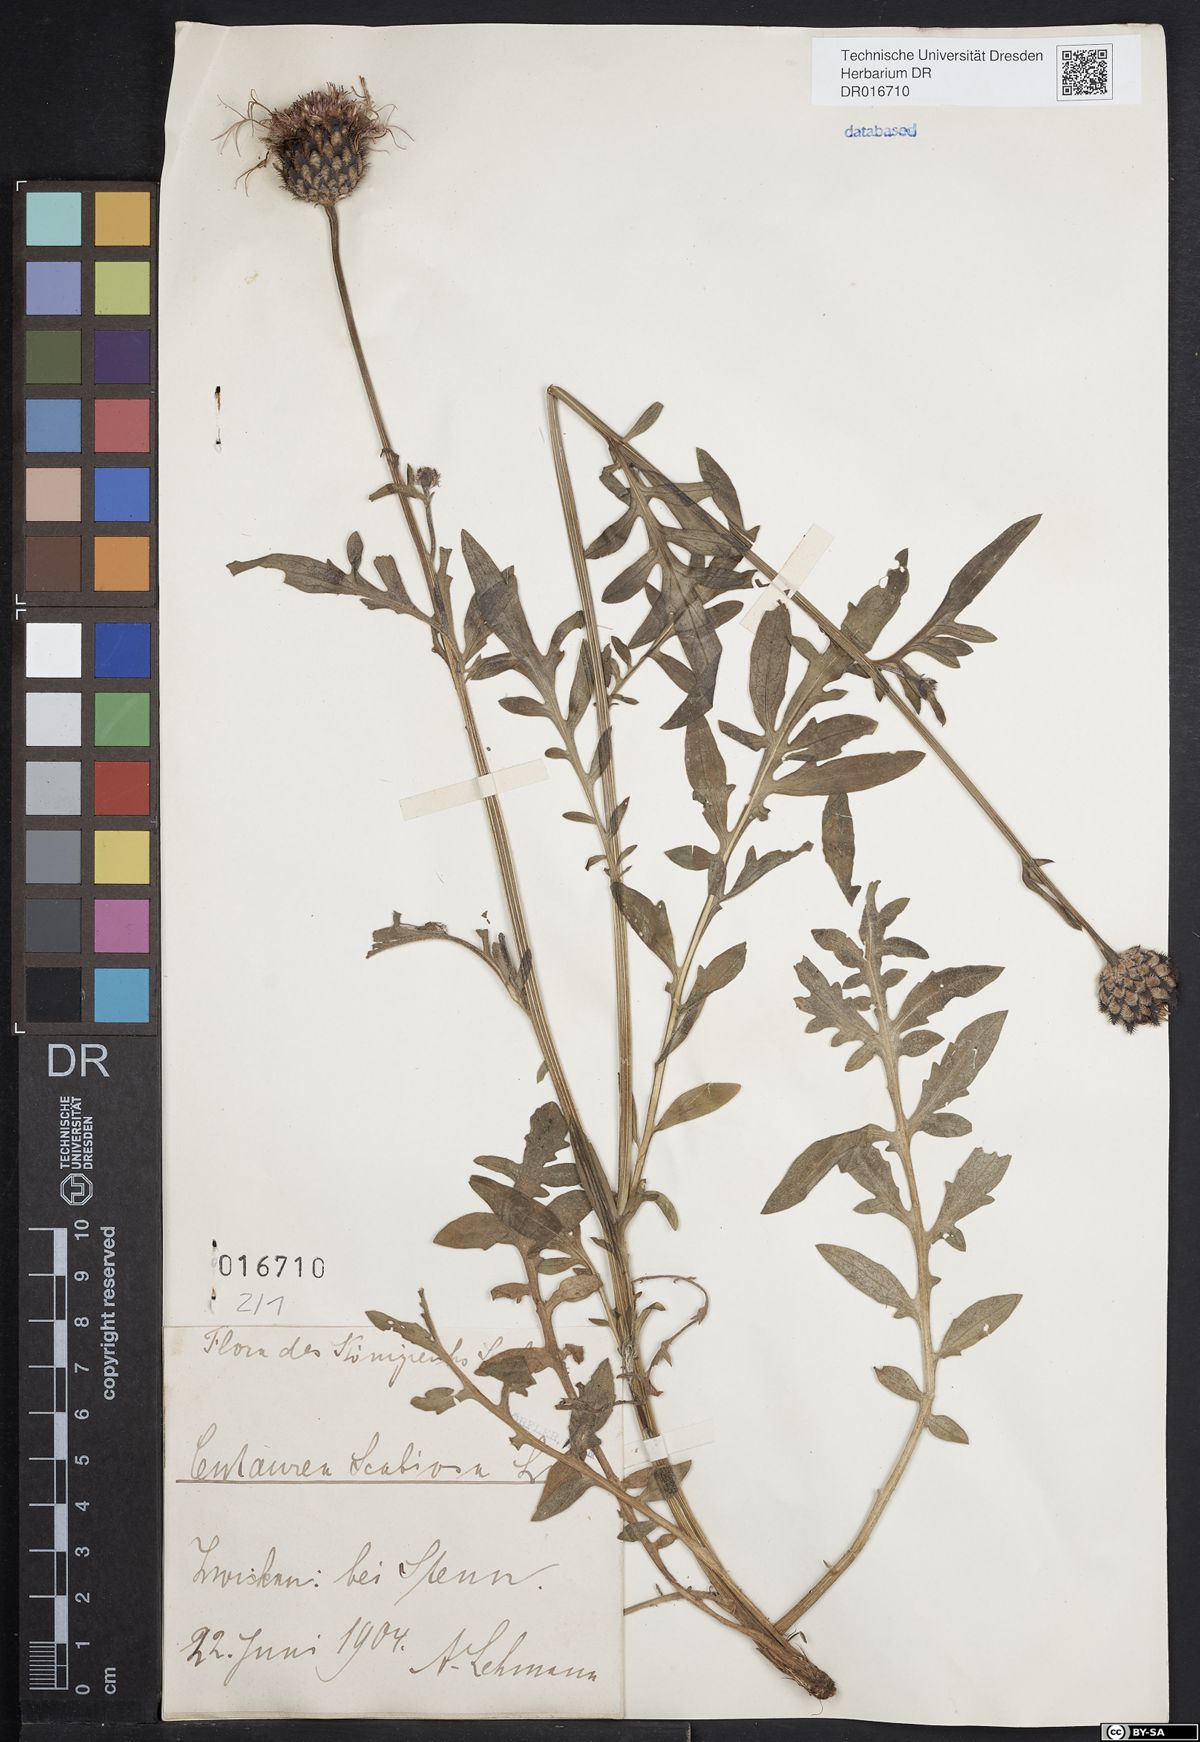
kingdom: Plantae
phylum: Tracheophyta
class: Magnoliopsida
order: Asterales
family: Asteraceae
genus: Centaurea
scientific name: Centaurea scabiosa
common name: Greater knapweed
